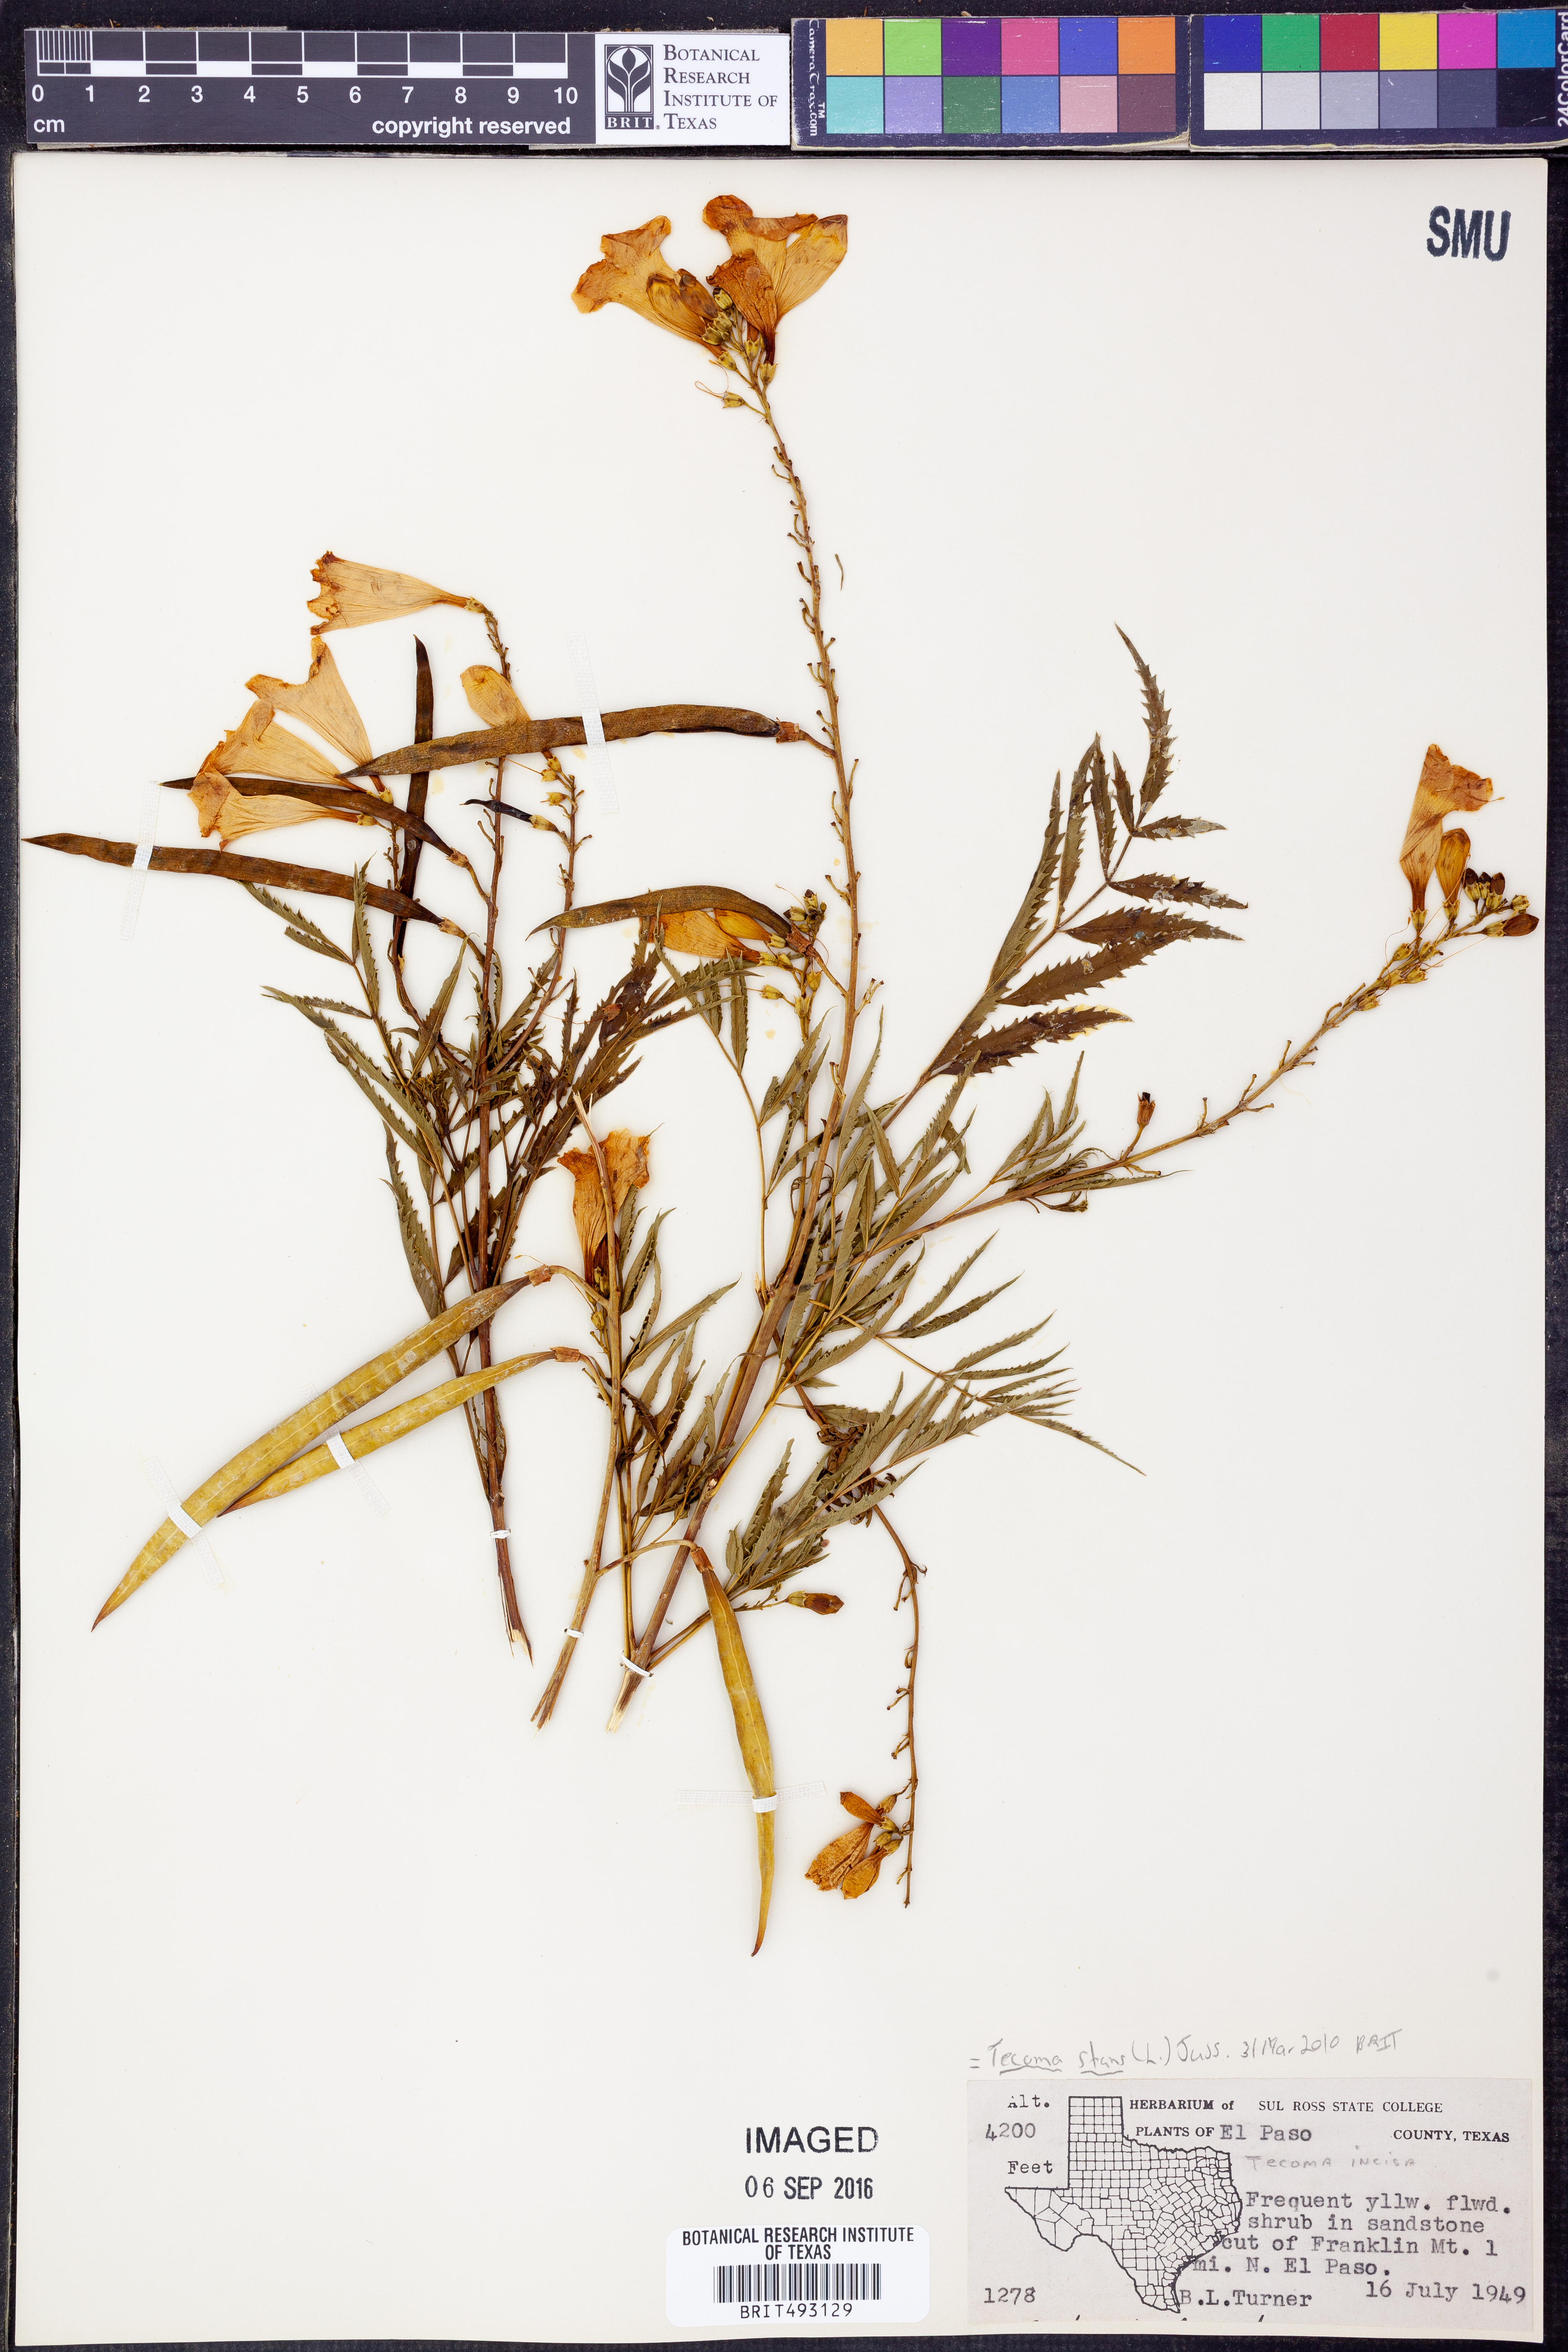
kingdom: Plantae
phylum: Tracheophyta
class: Magnoliopsida
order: Lamiales
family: Bignoniaceae
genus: Tecoma
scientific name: Tecoma stans
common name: Yellow trumpetbush
